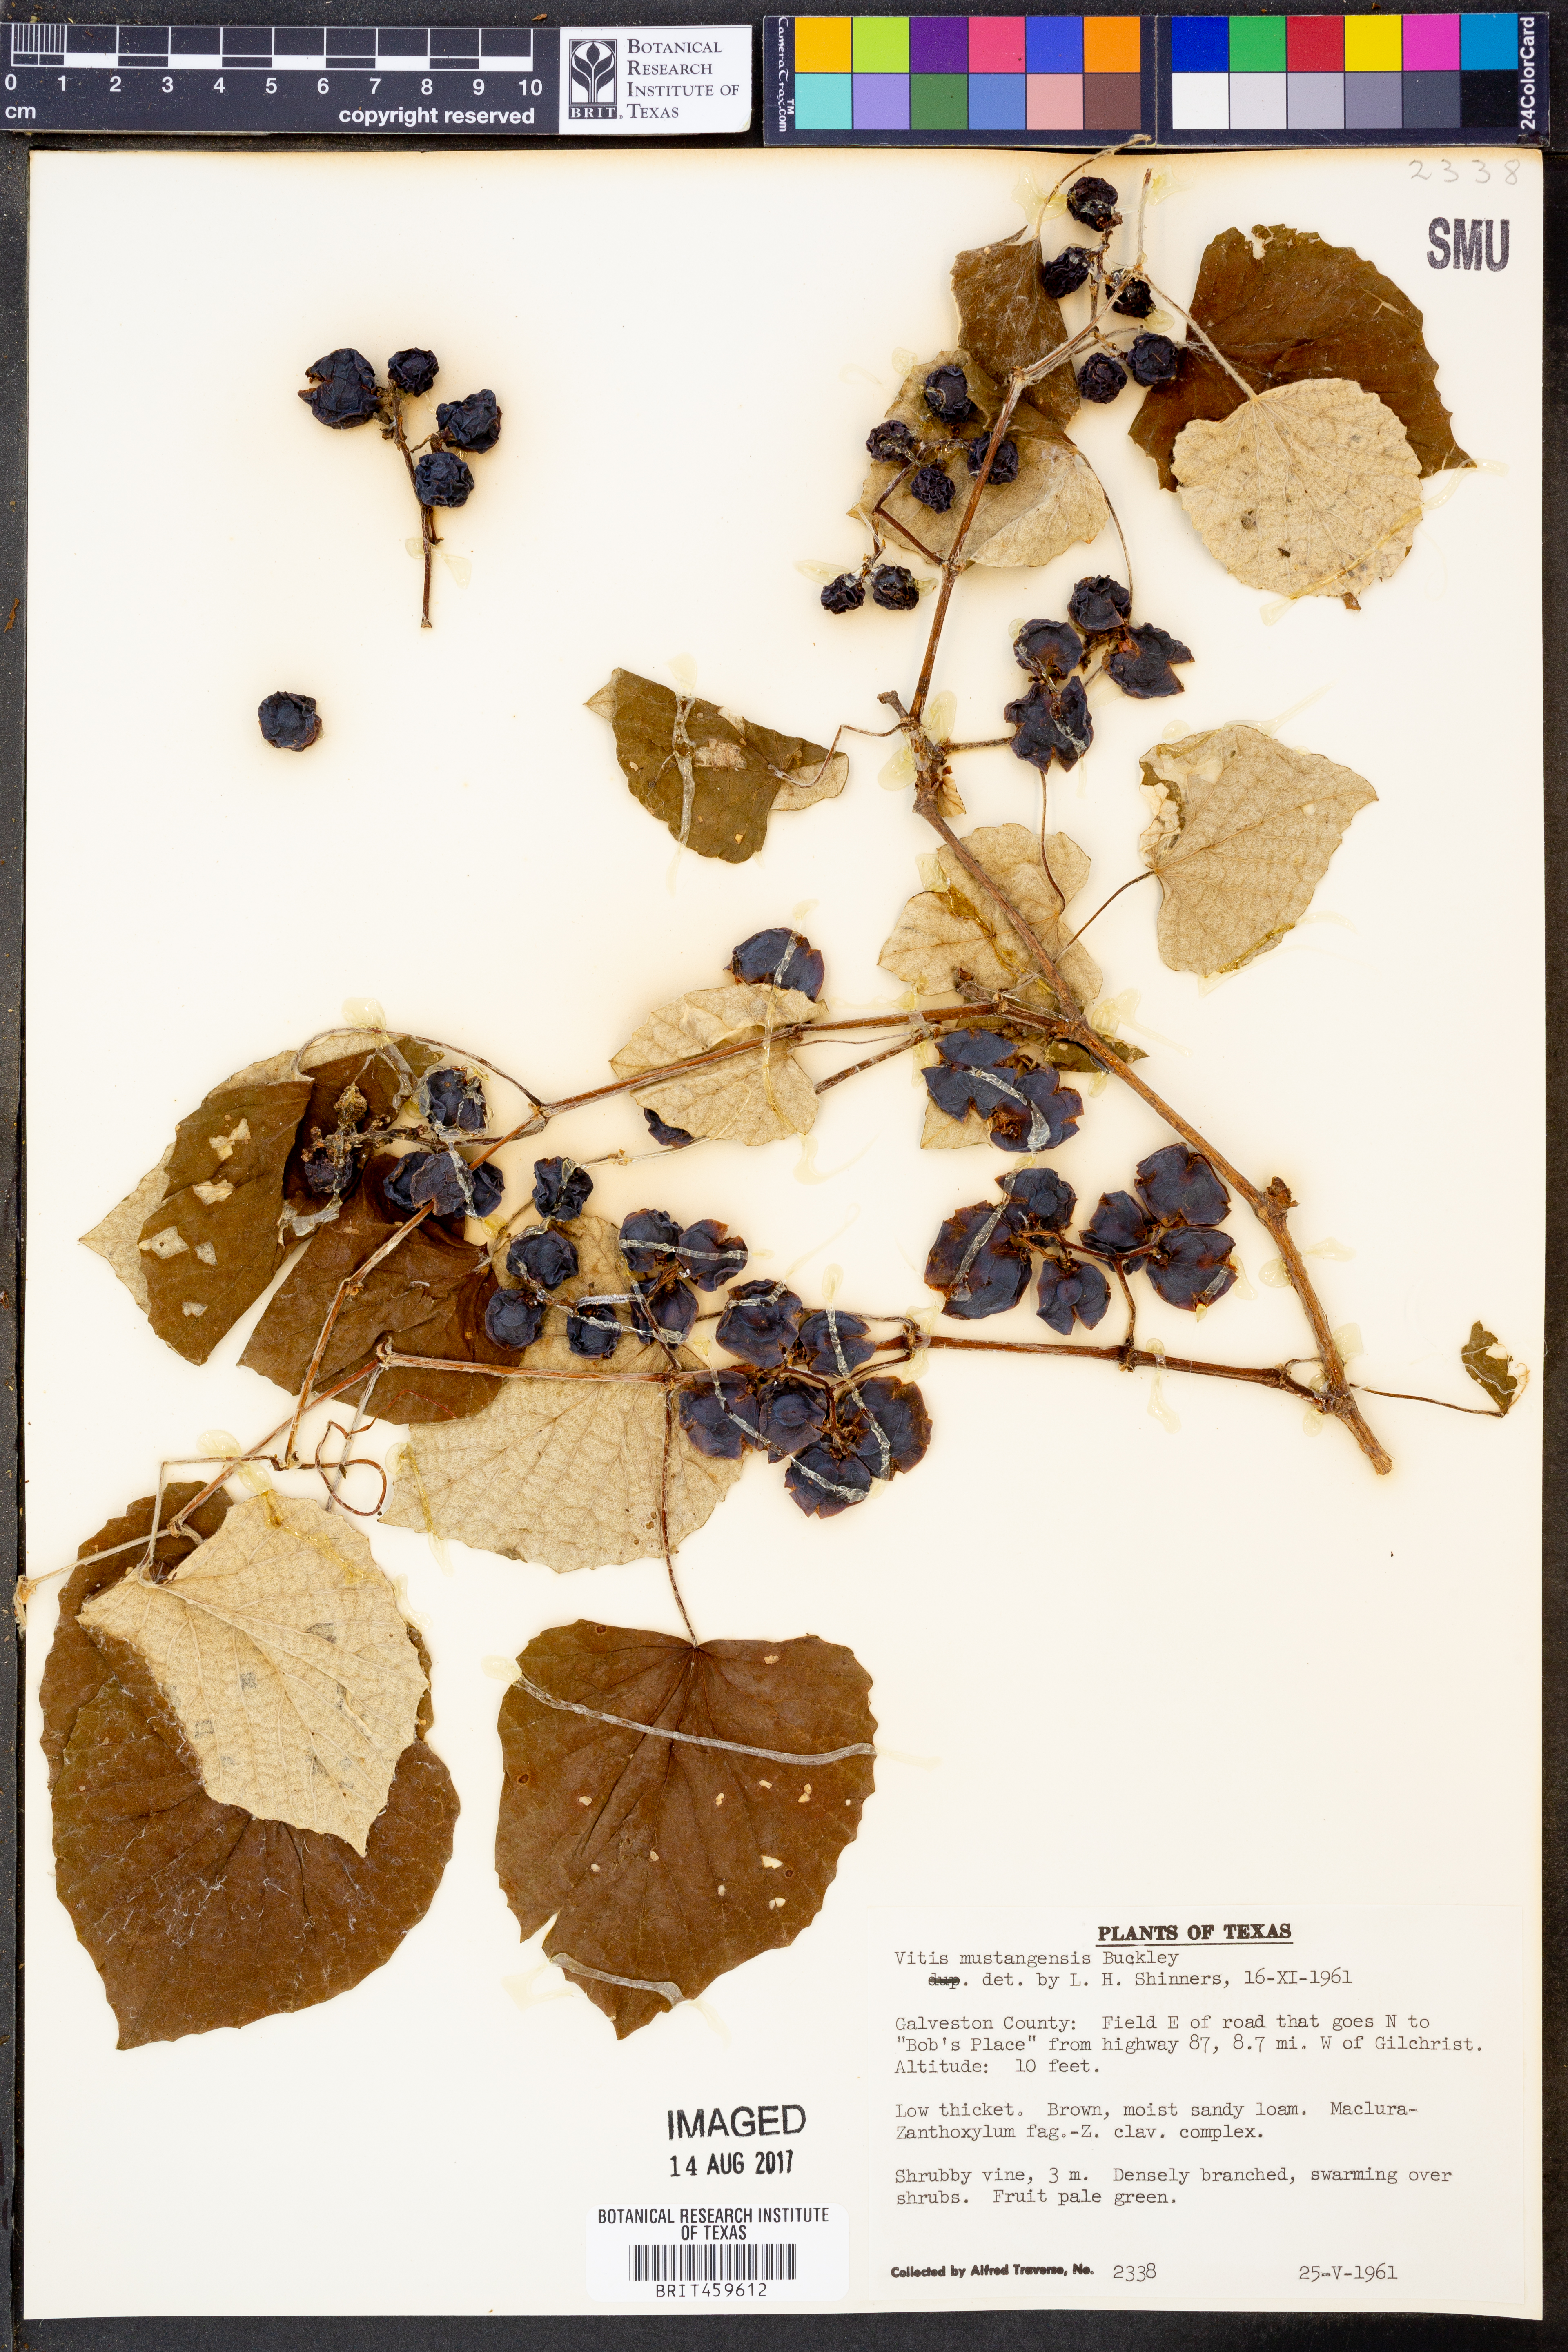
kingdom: Plantae
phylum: Tracheophyta
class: Magnoliopsida
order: Vitales
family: Vitaceae
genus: Vitis
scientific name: Vitis mustangensis
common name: Mustang grape
